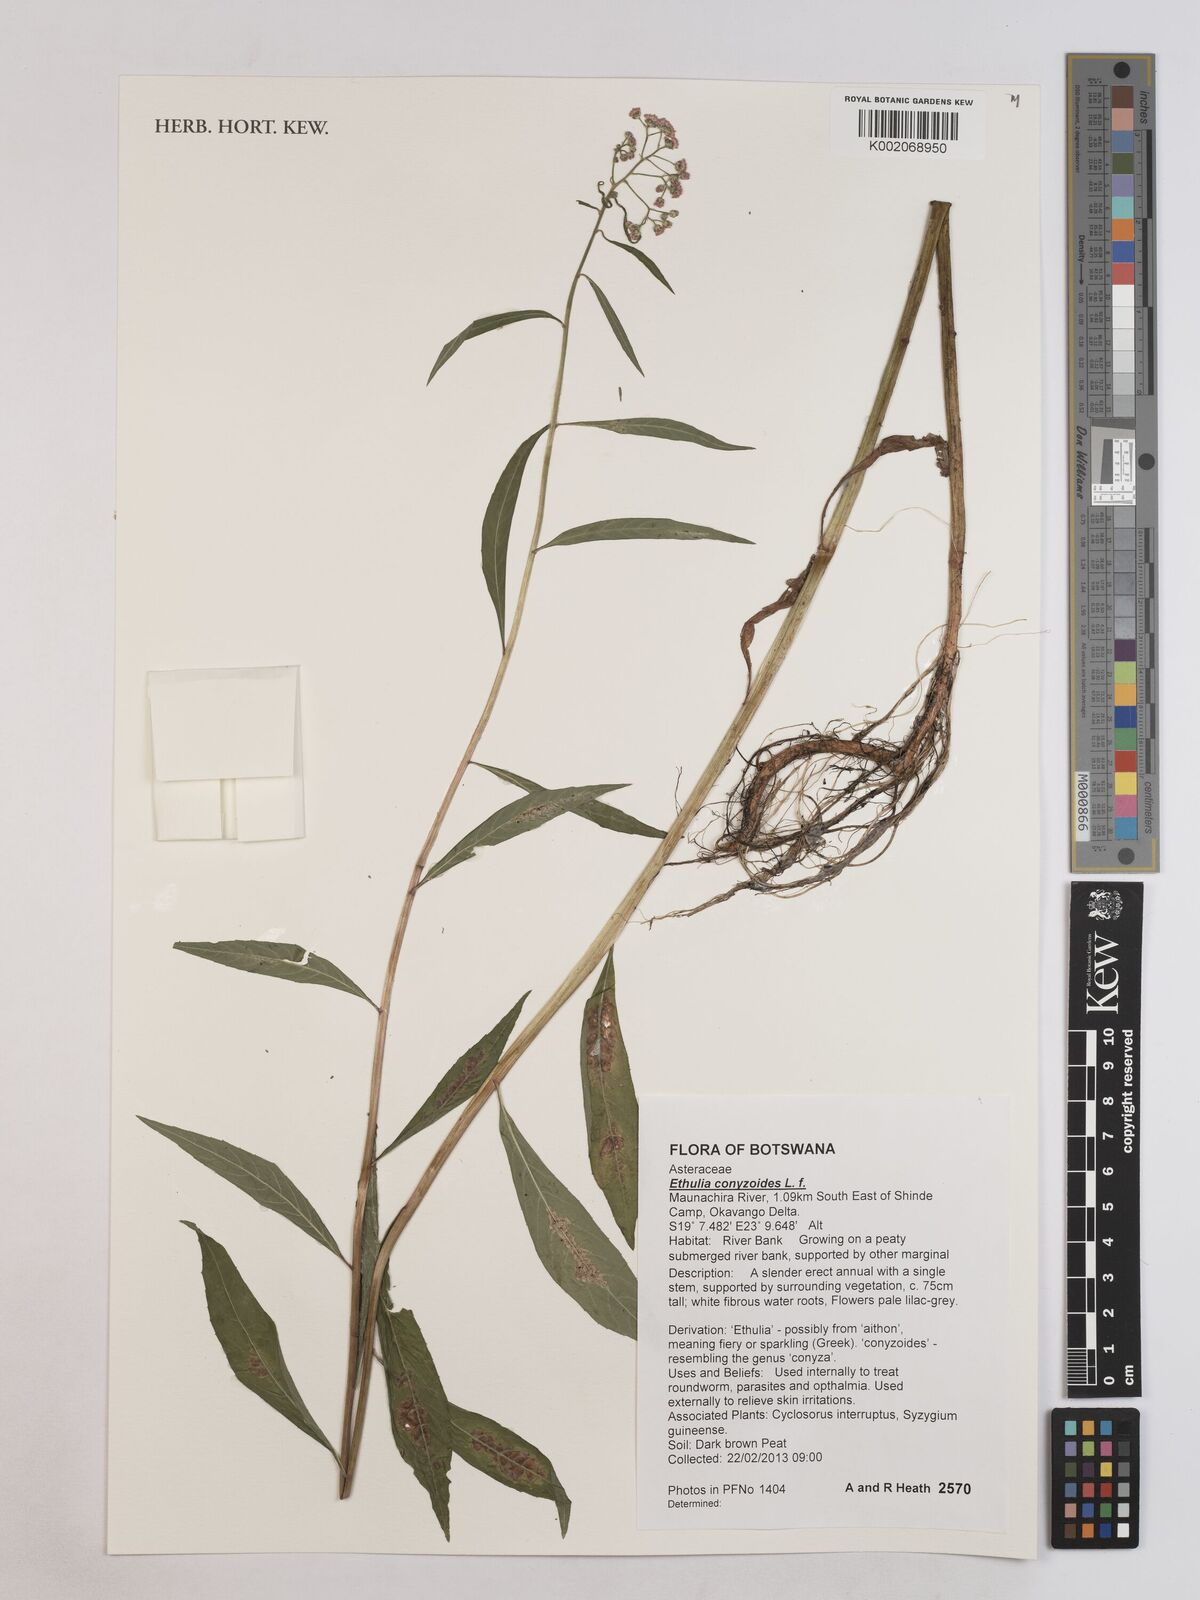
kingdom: Plantae
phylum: Tracheophyta
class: Magnoliopsida
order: Asterales
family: Asteraceae
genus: Ethulia
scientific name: Ethulia conyzoides
